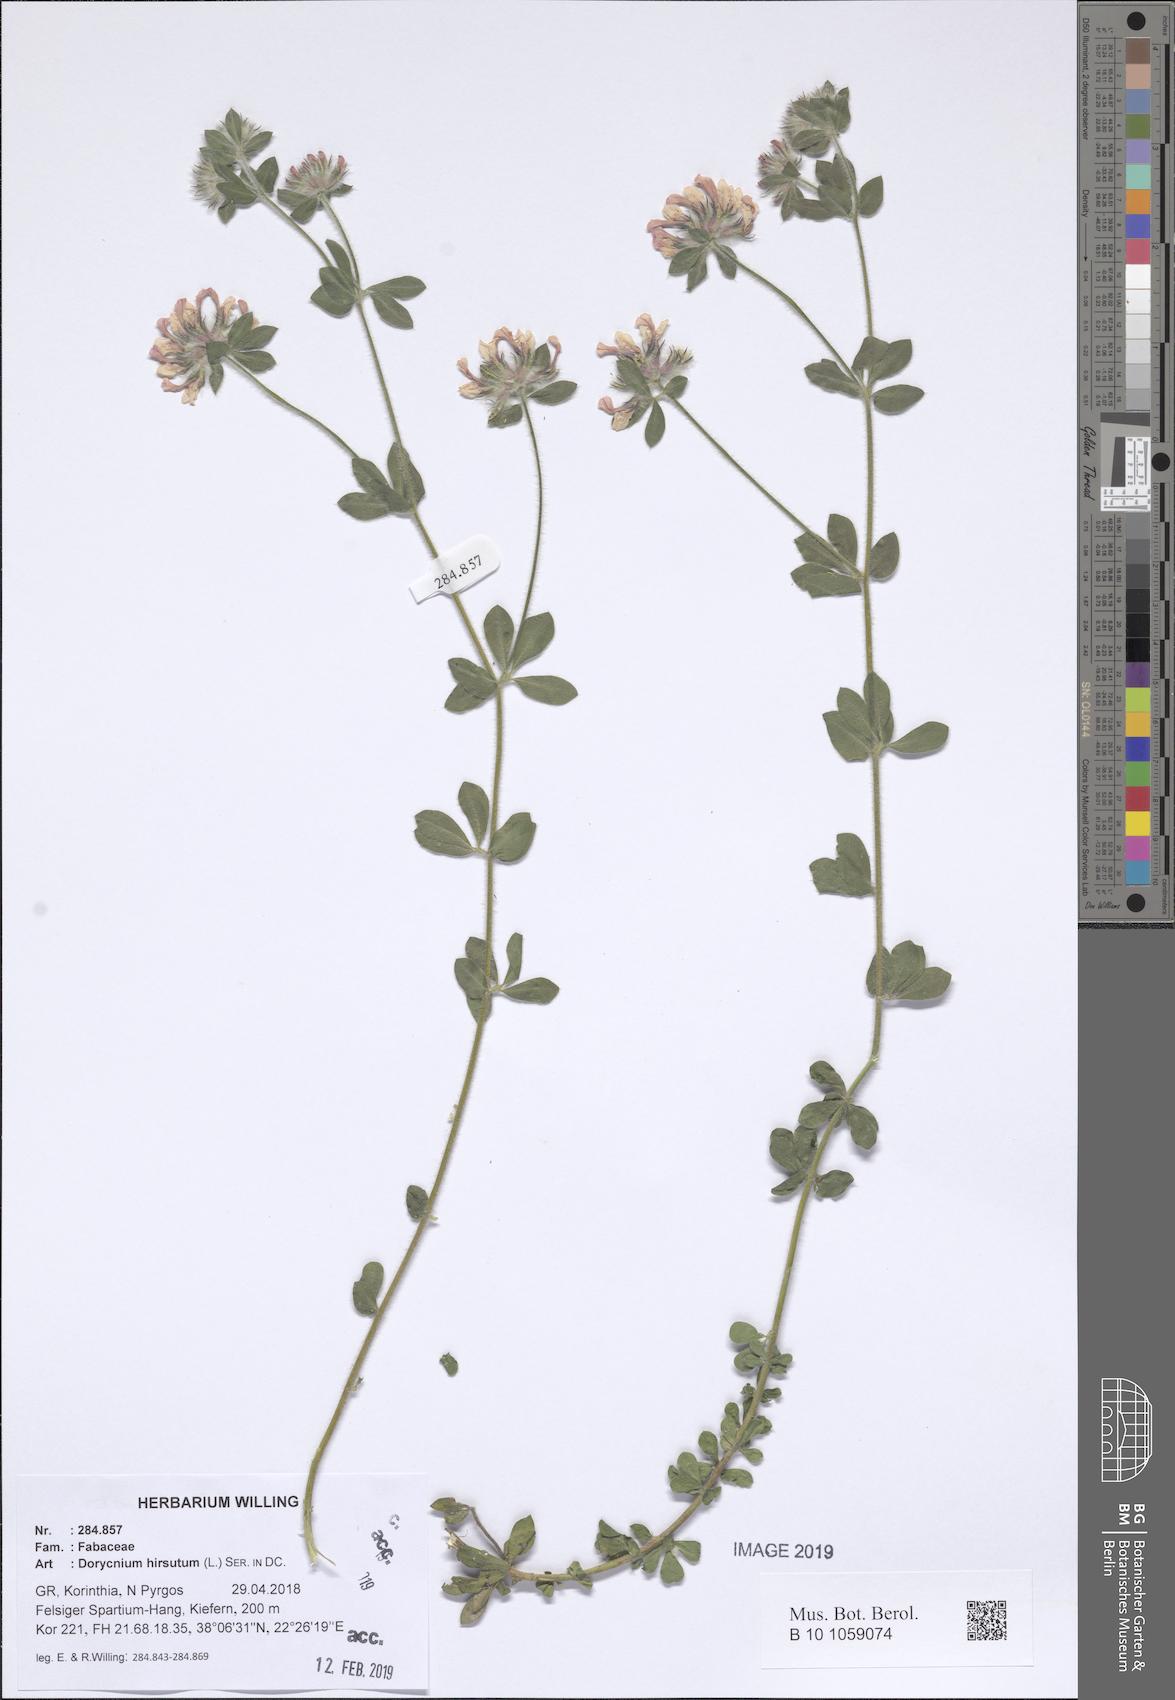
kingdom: Plantae
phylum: Tracheophyta
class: Magnoliopsida
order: Fabales
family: Fabaceae
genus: Lotus
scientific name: Lotus hirsutus
